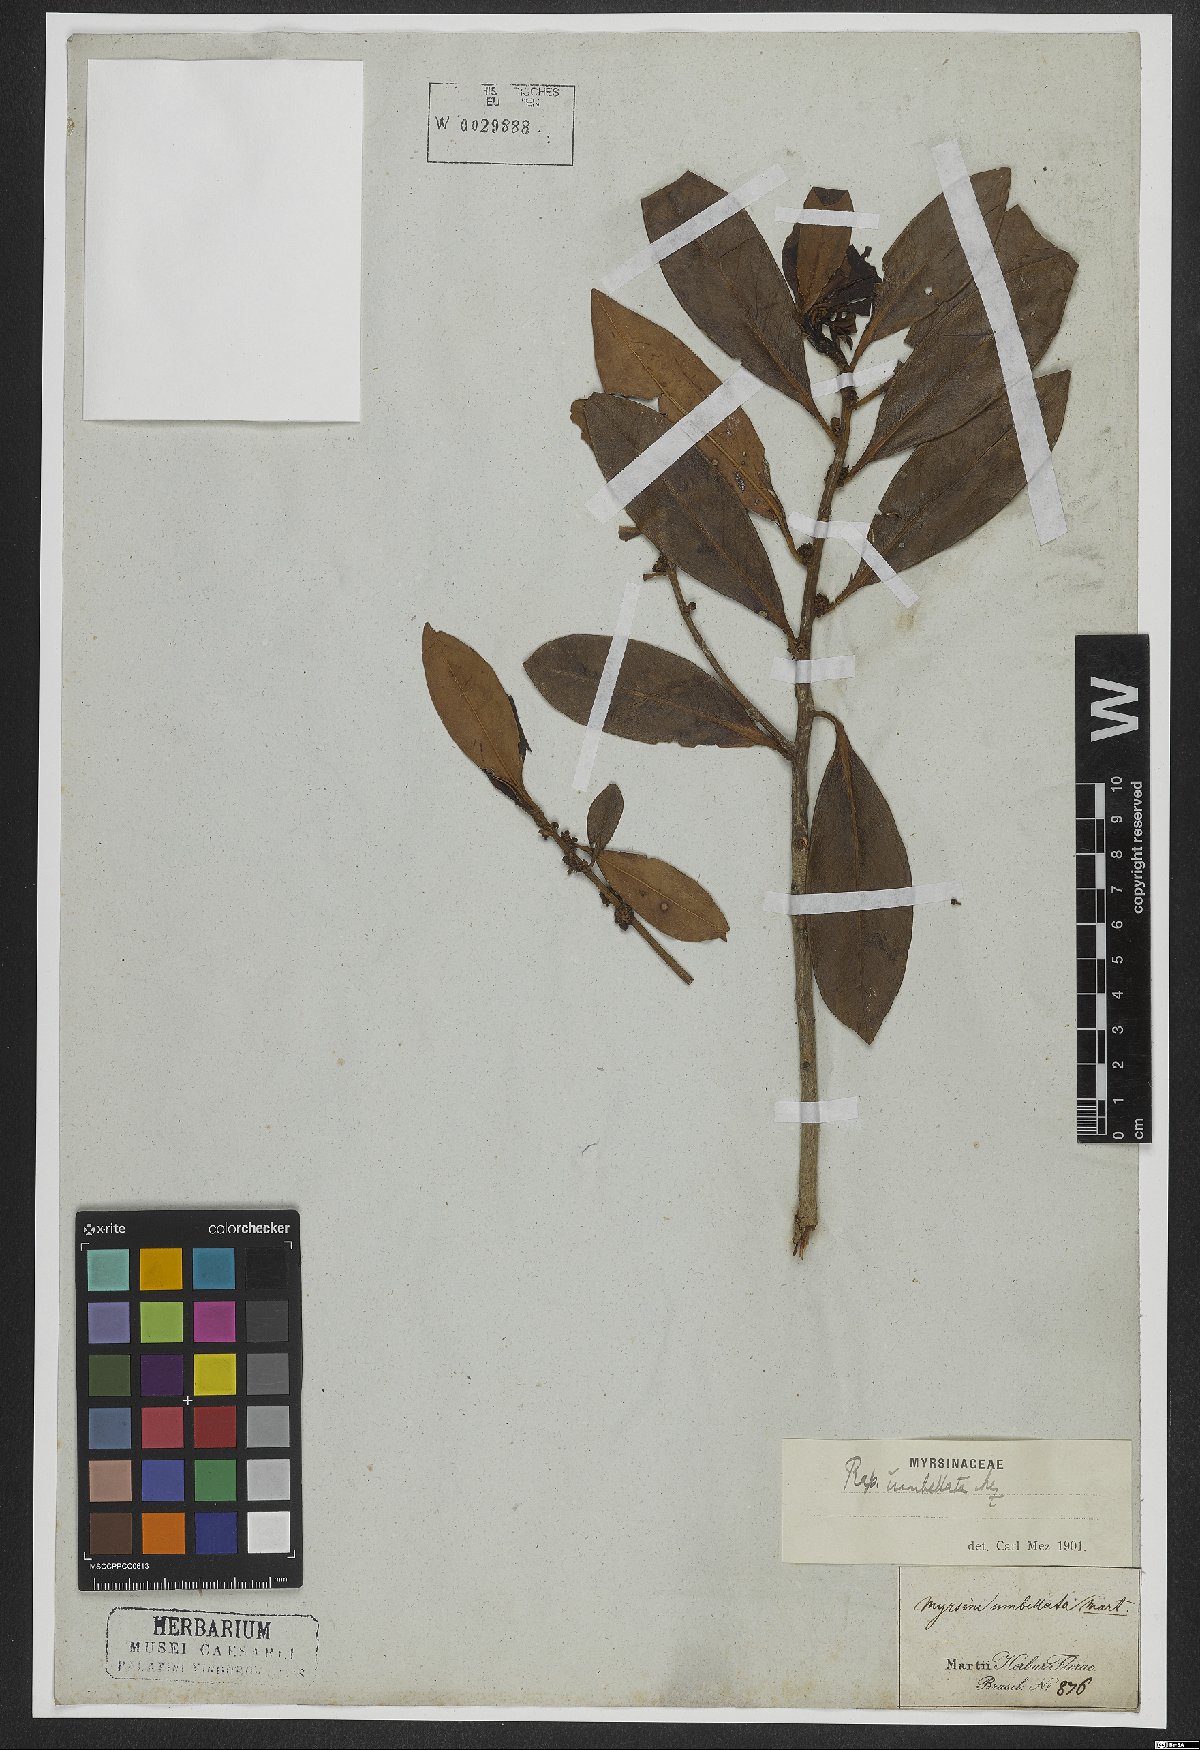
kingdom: Plantae
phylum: Tracheophyta
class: Magnoliopsida
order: Ericales
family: Primulaceae
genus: Myrsine
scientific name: Myrsine umbellata
